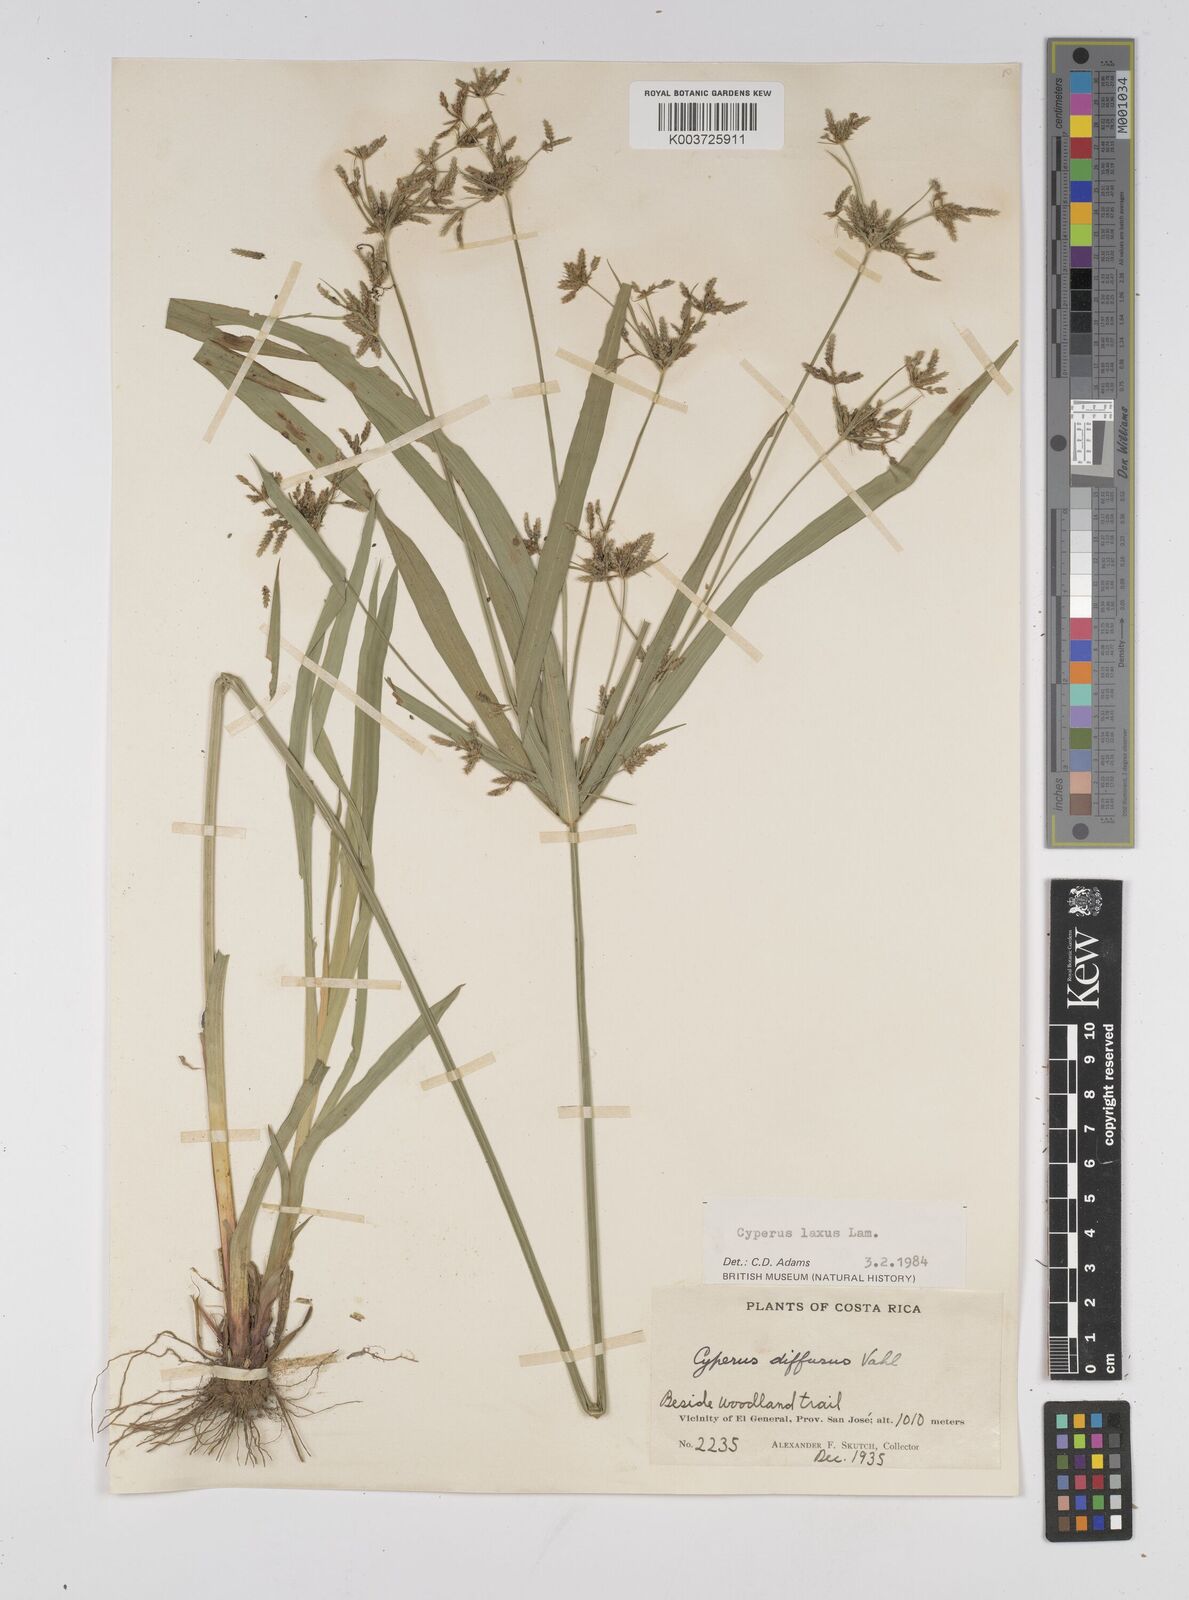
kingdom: Plantae
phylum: Tracheophyta
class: Liliopsida
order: Poales
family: Cyperaceae
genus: Cyperus
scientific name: Cyperus chalaranthus
